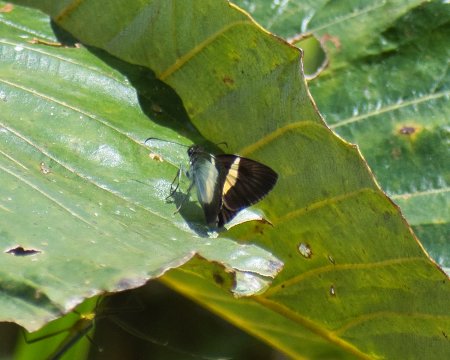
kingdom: Animalia
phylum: Arthropoda
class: Insecta
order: Lepidoptera
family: Hesperiidae
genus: Potamanaxas
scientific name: Potamanaxas thoria
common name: Thoria Skipper
